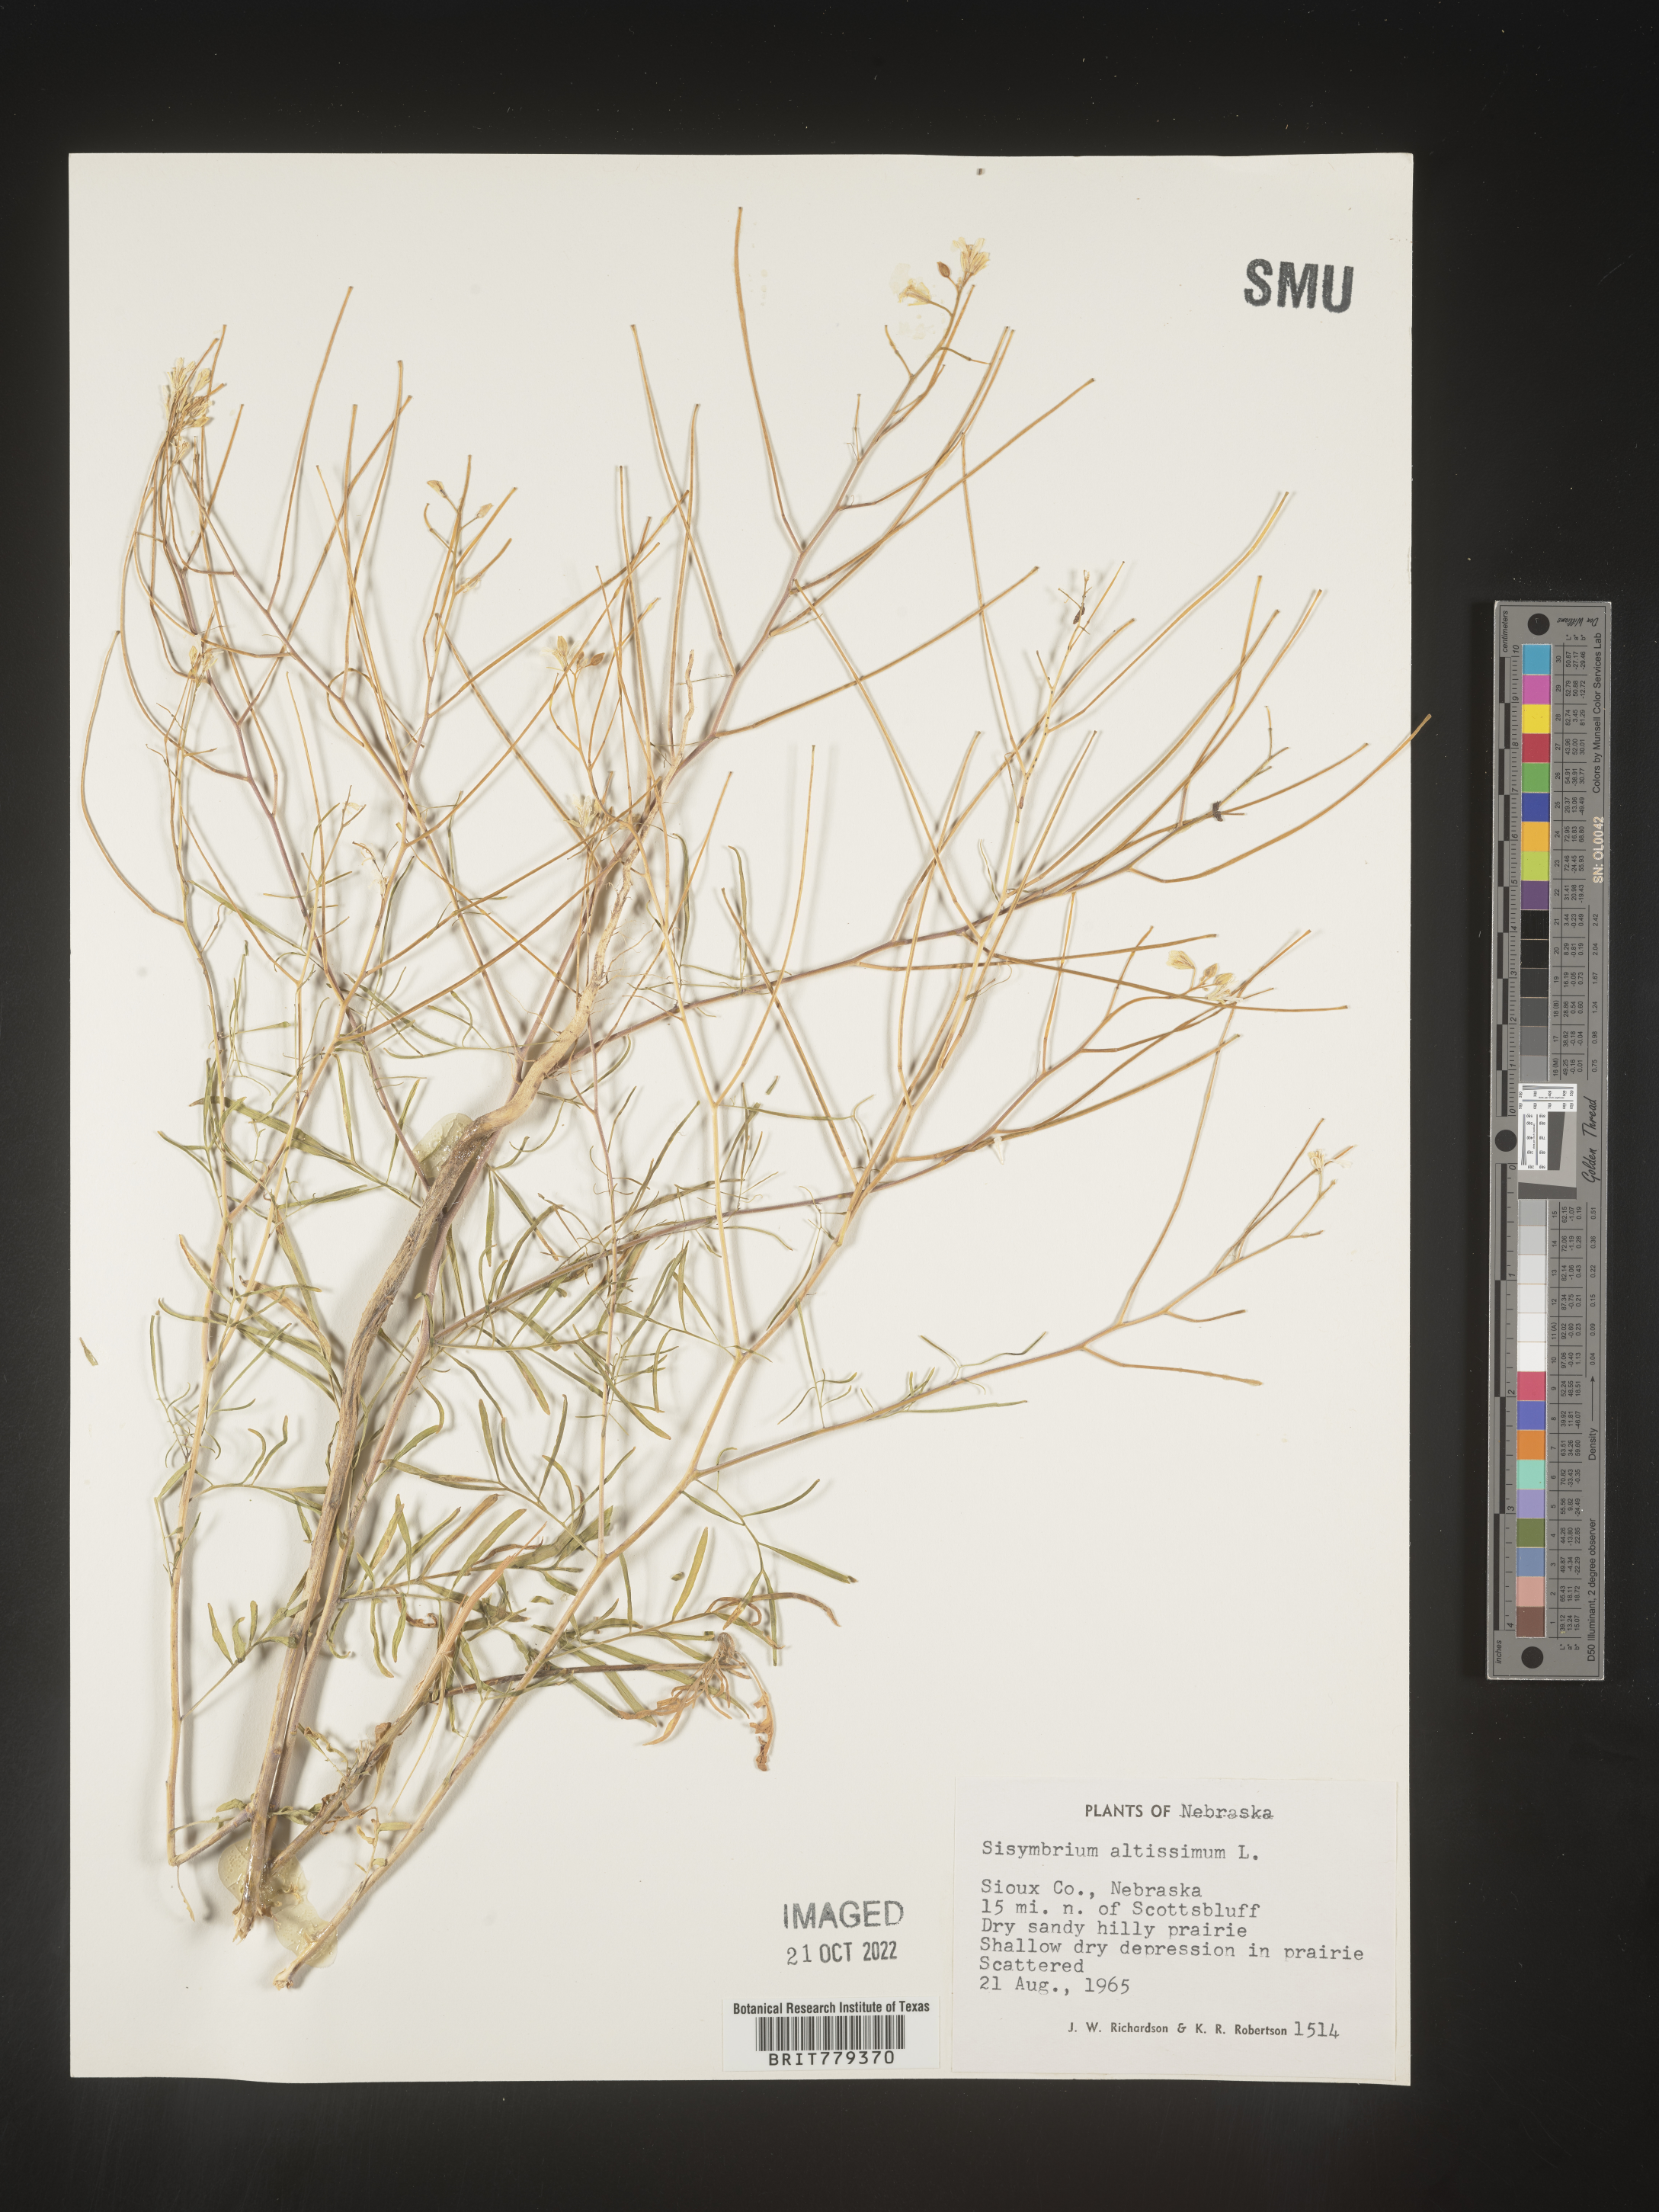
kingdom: Plantae
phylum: Tracheophyta
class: Magnoliopsida
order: Brassicales
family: Brassicaceae
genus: Sisymbrium
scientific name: Sisymbrium altissimum
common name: Tall rocket
